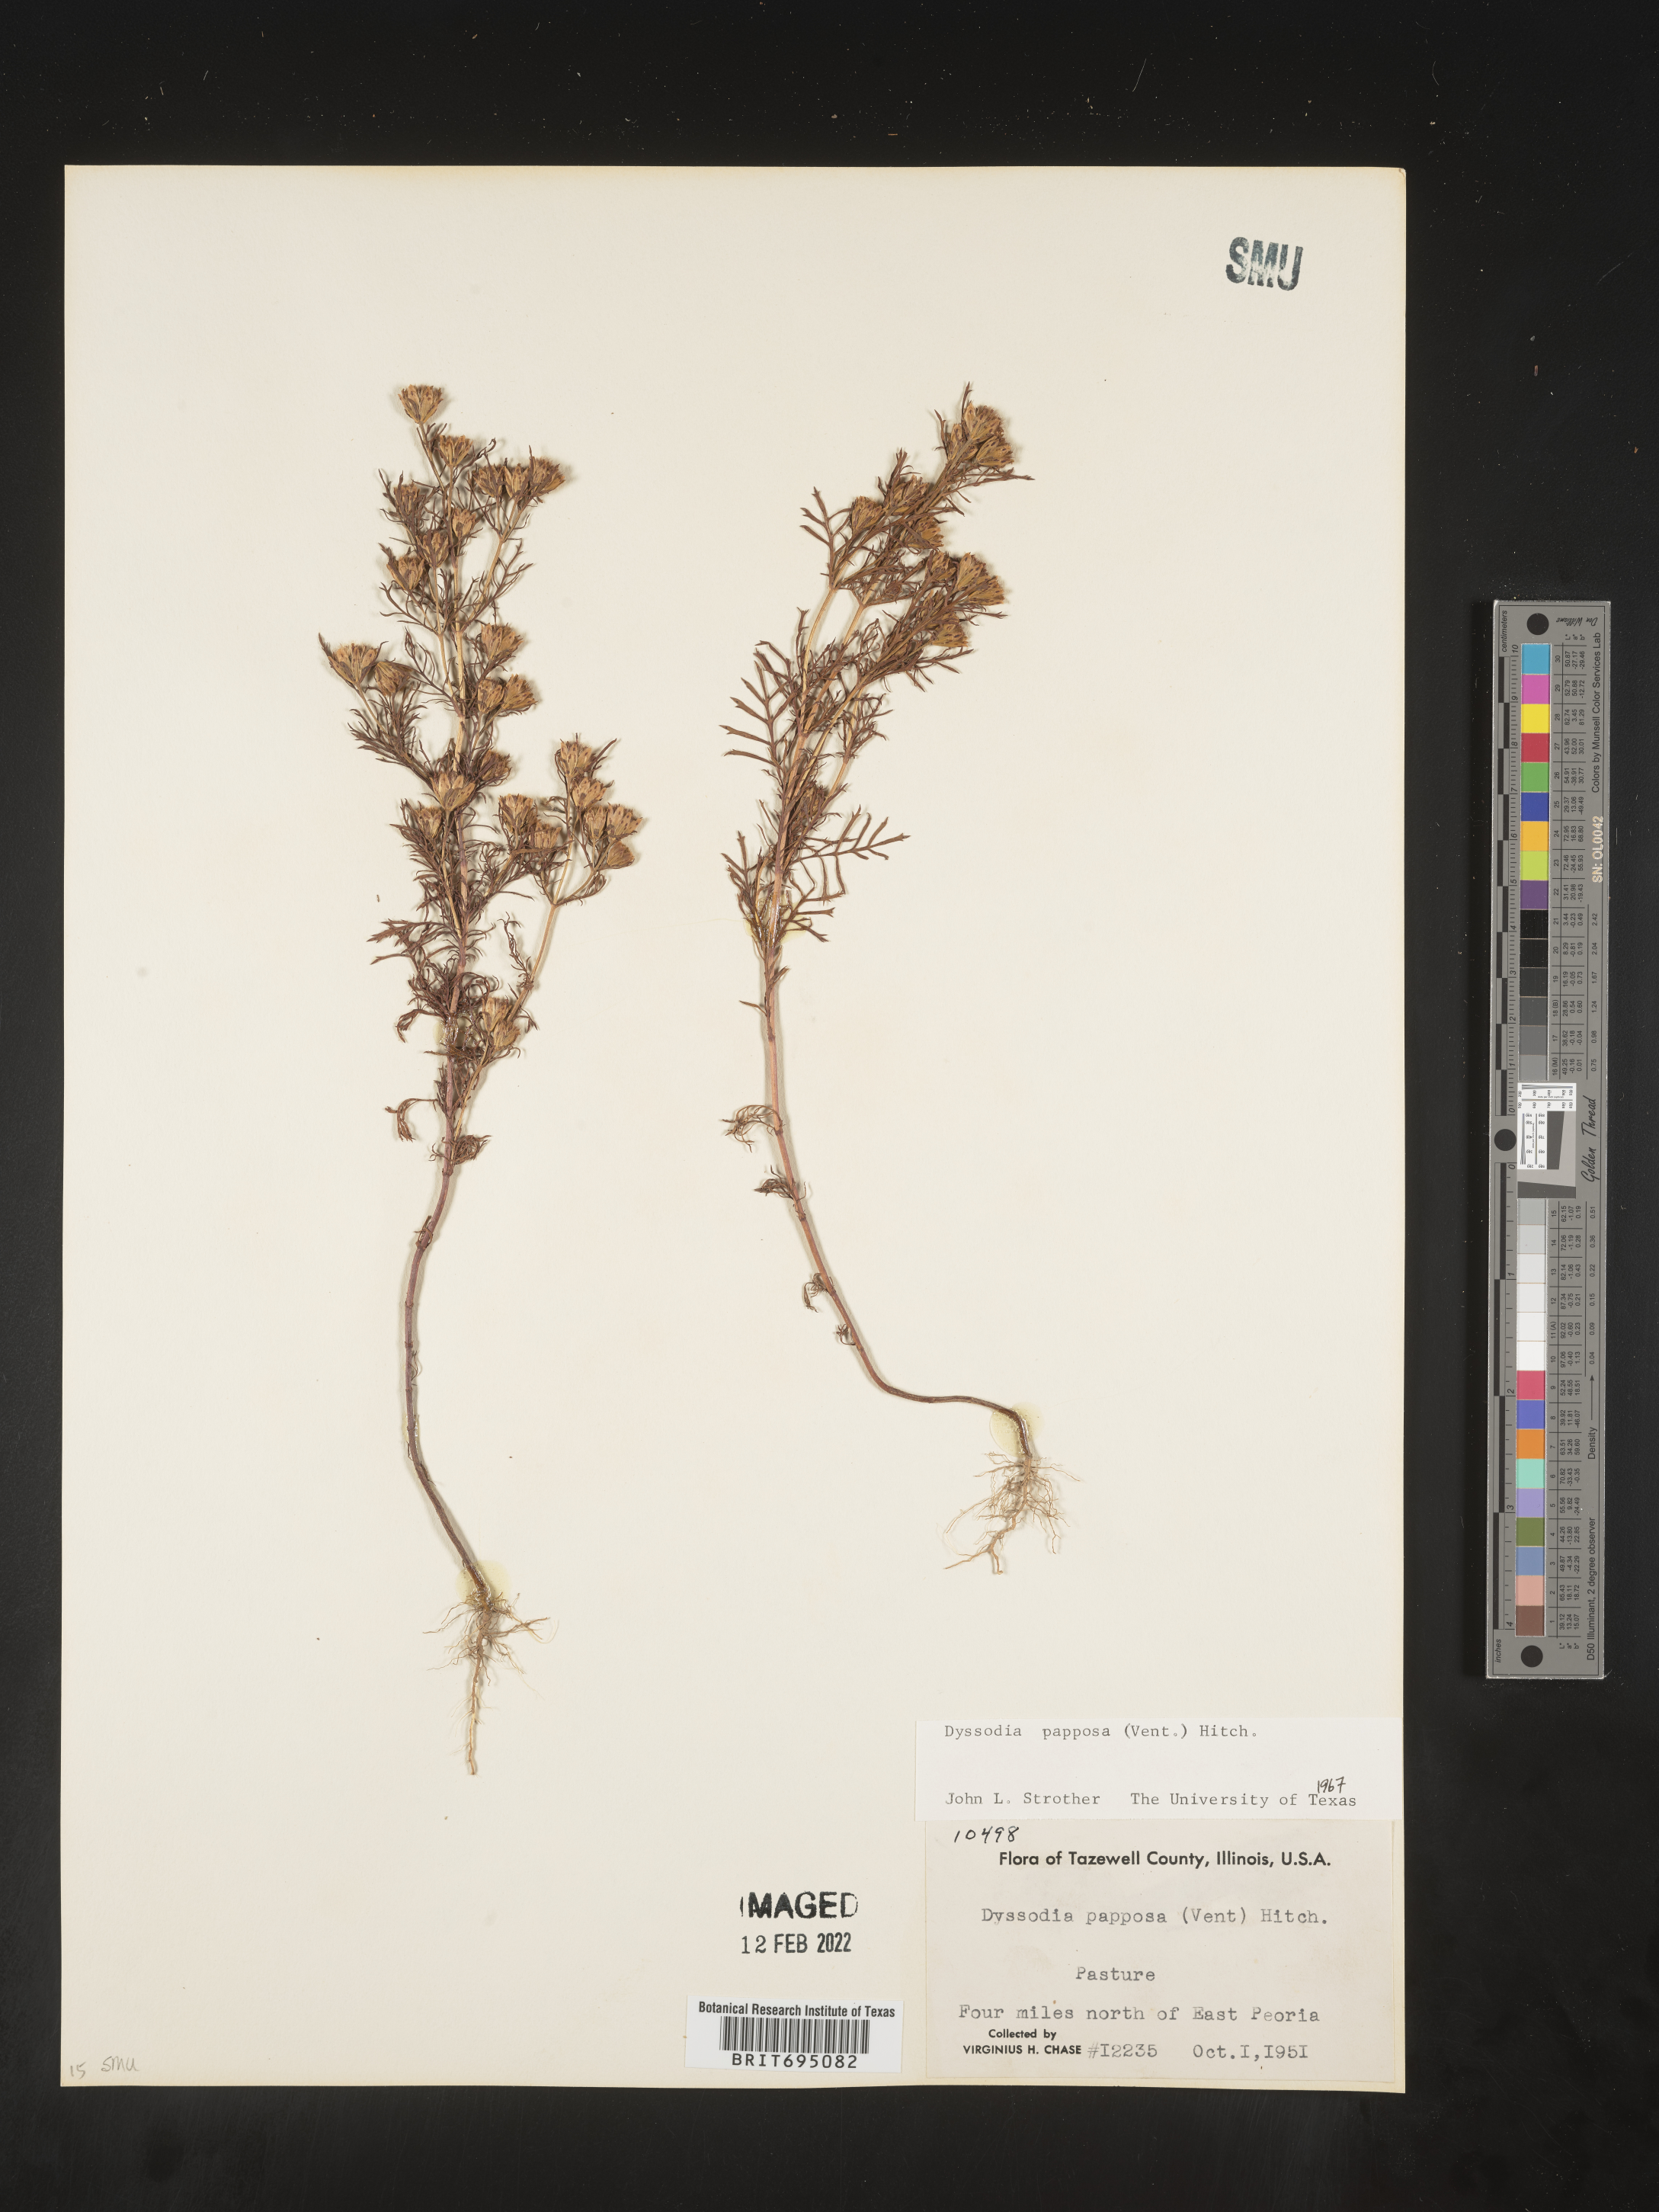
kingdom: Plantae
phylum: Tracheophyta
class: Magnoliopsida
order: Asterales
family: Asteraceae
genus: Dyssodia
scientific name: Dyssodia papposa
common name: Dogweed
